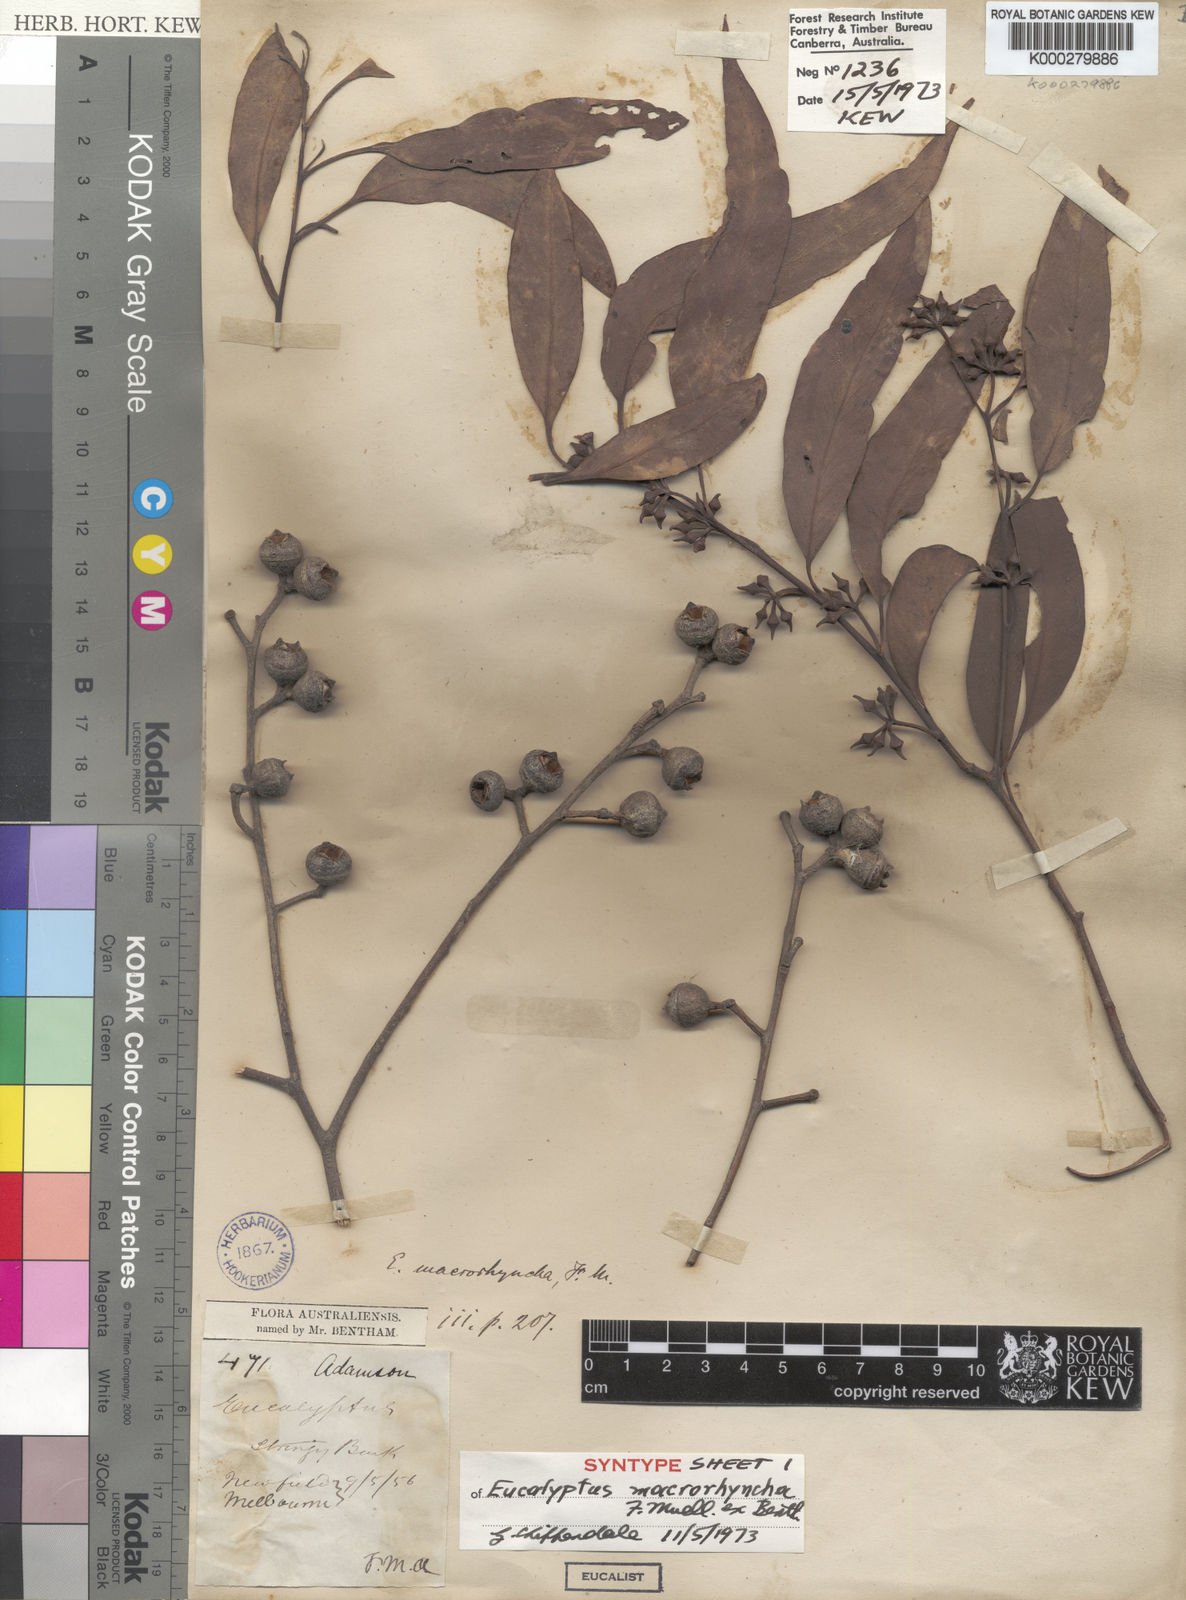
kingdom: Plantae
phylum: Tracheophyta
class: Magnoliopsida
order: Myrtales
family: Myrtaceae
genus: Eucalyptus
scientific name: Eucalyptus macrorhyncha
